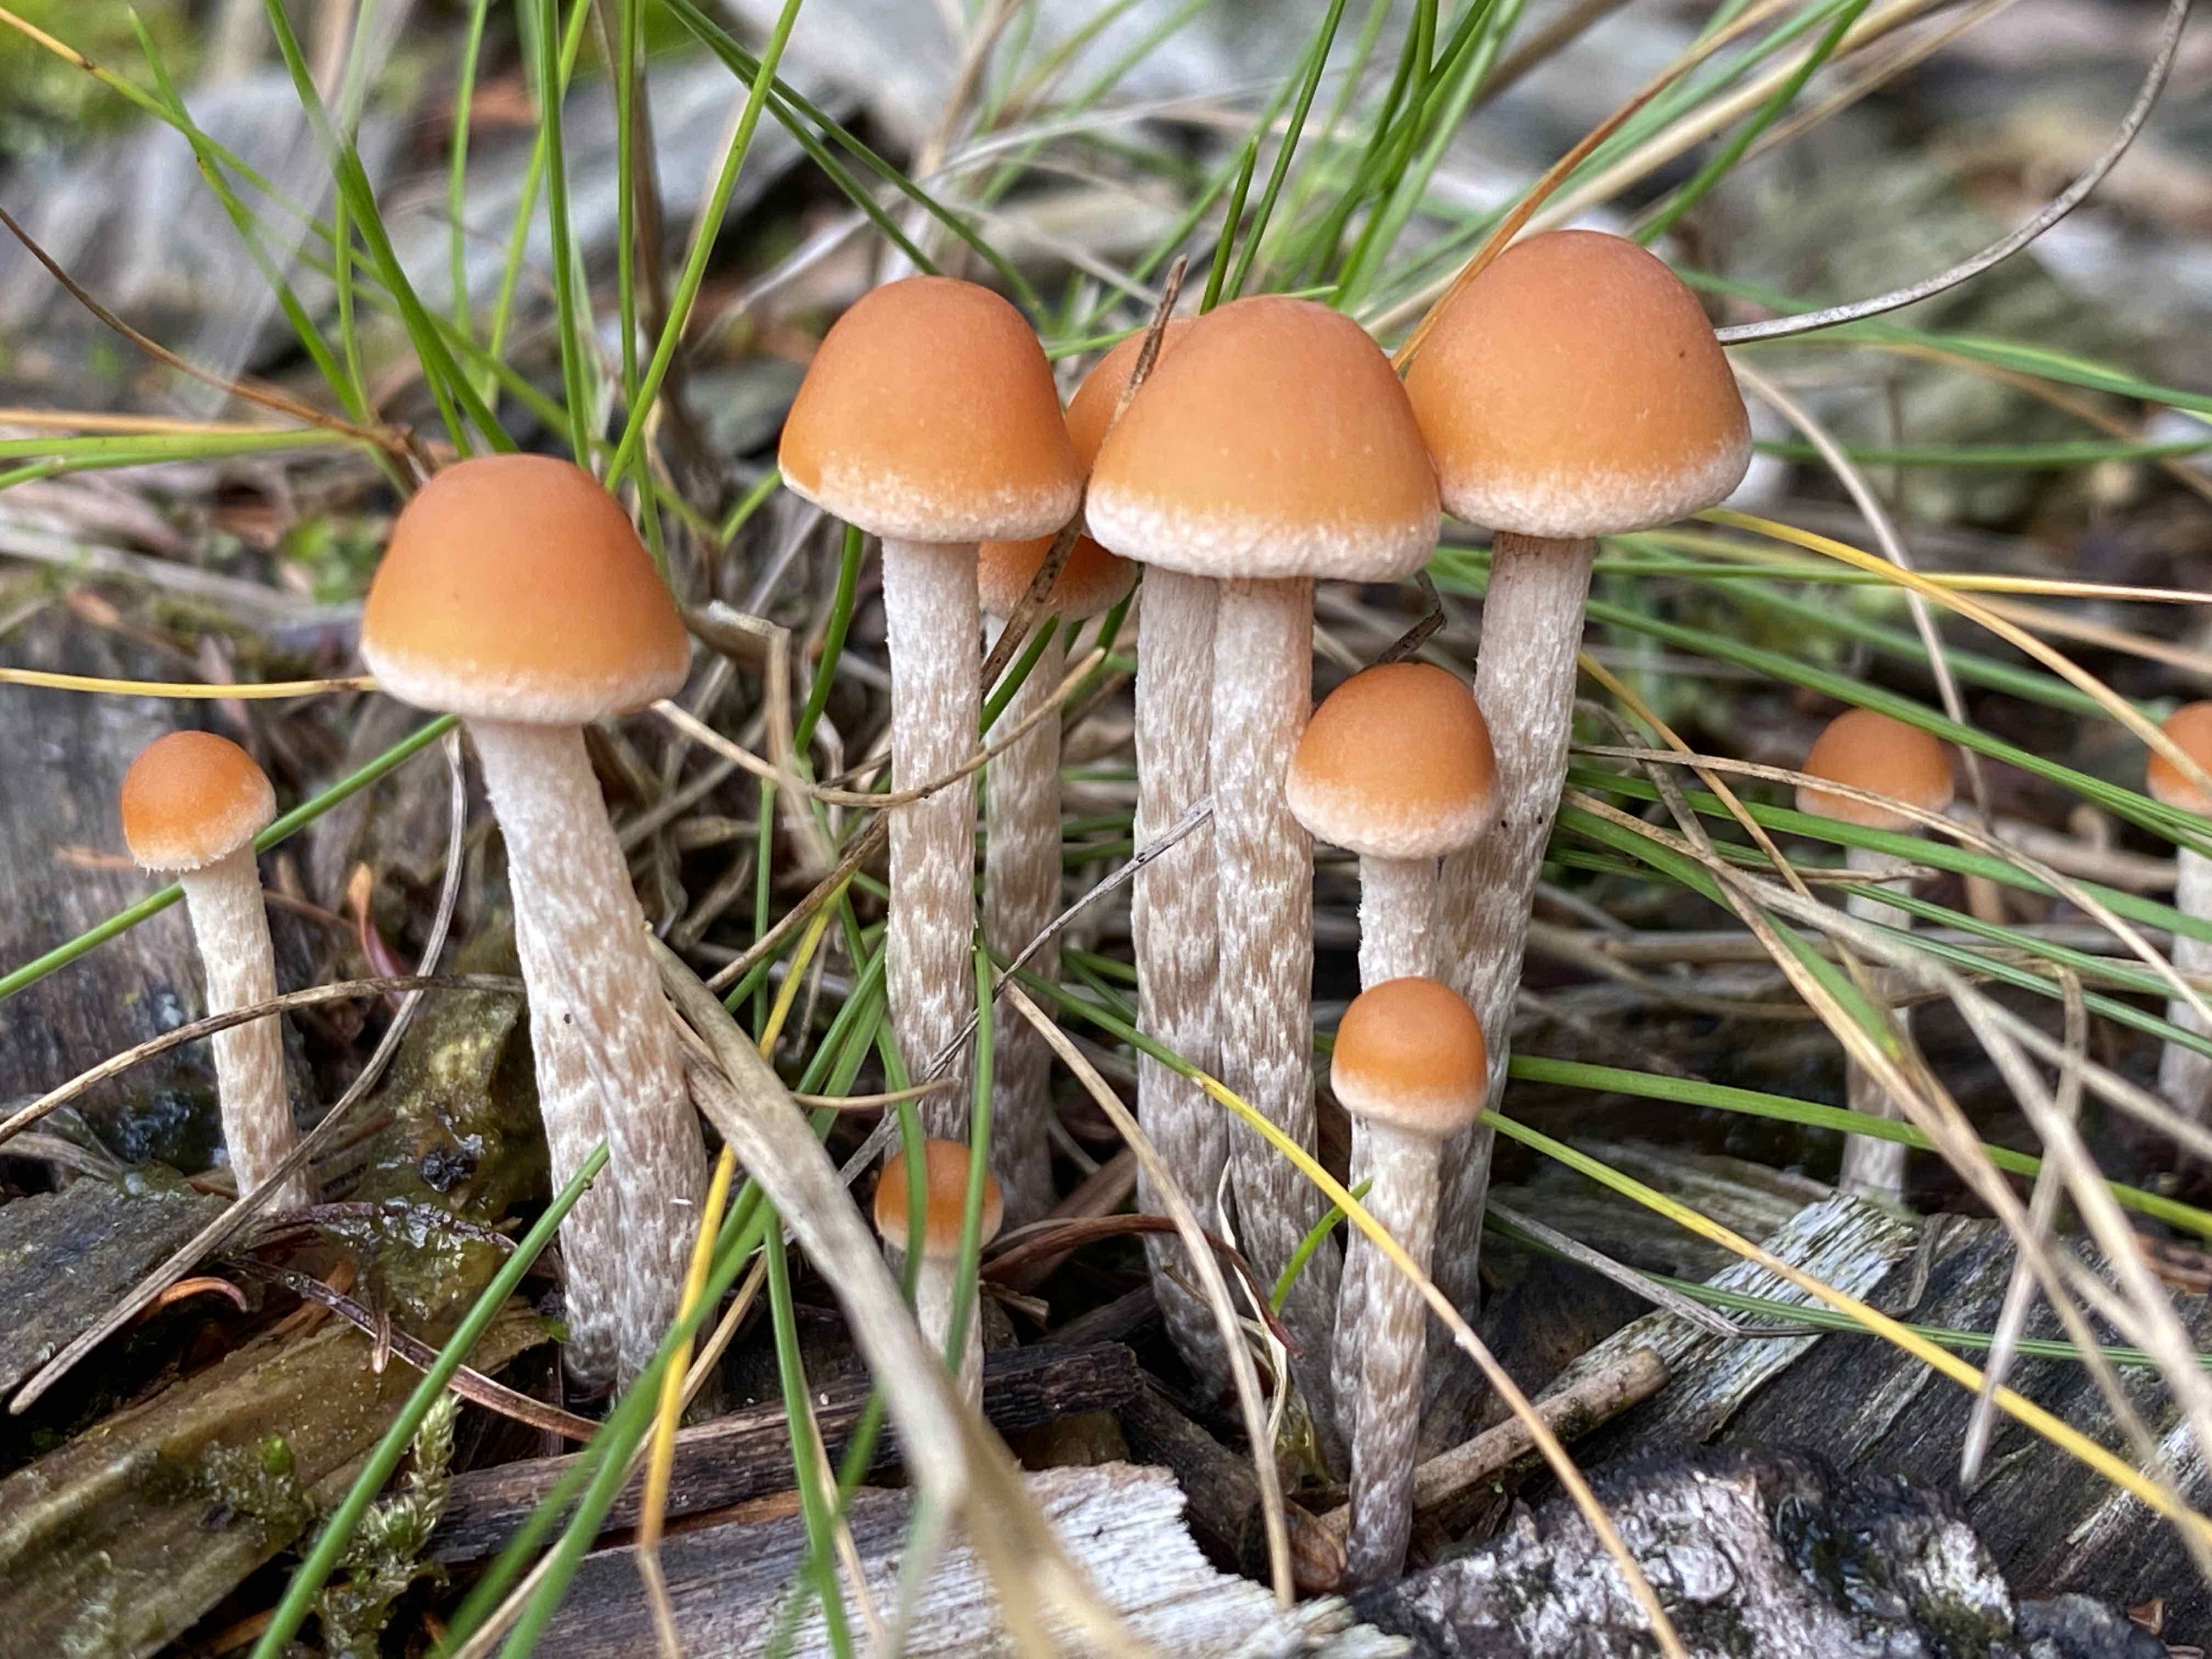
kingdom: Fungi
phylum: Basidiomycota
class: Agaricomycetes
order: Agaricales
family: Strophariaceae
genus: Hypholoma
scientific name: Hypholoma marginatum
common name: enlig svovlhat
